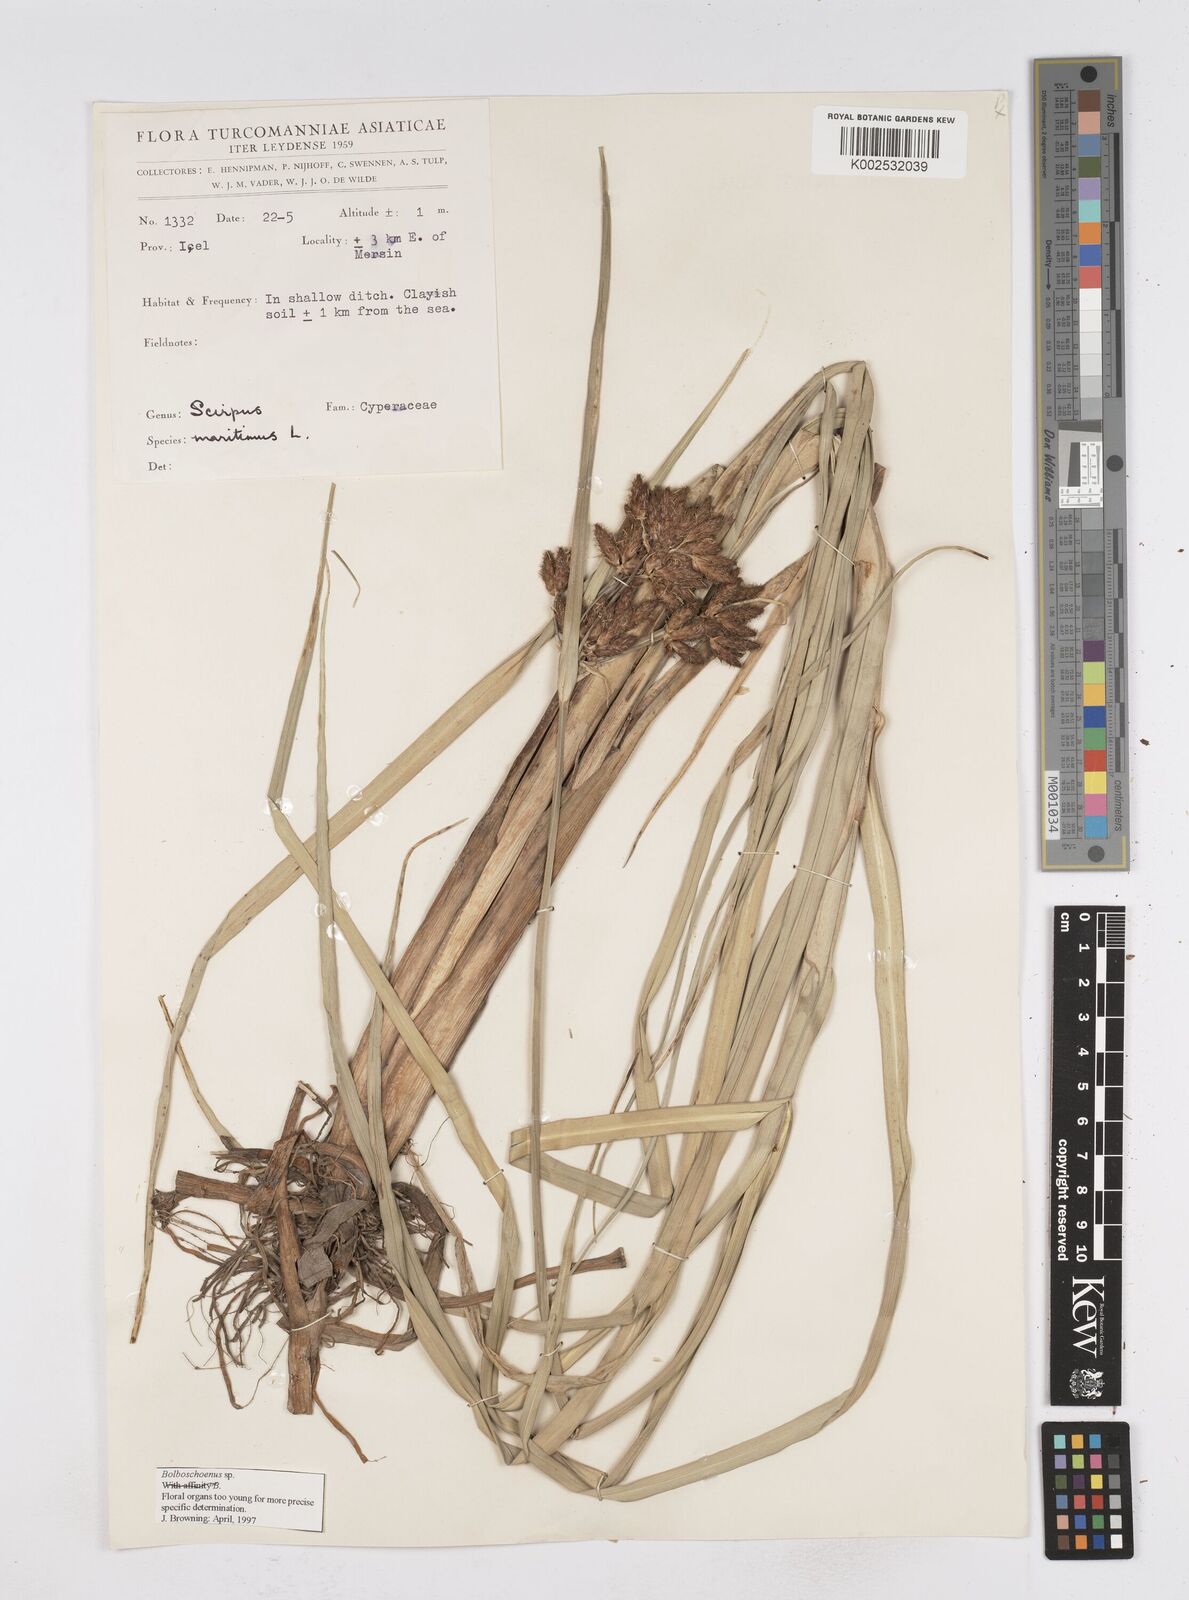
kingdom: Plantae
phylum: Tracheophyta
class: Liliopsida
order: Poales
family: Cyperaceae
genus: Bolboschoenus
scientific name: Bolboschoenus maritimus
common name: Sea club-rush
